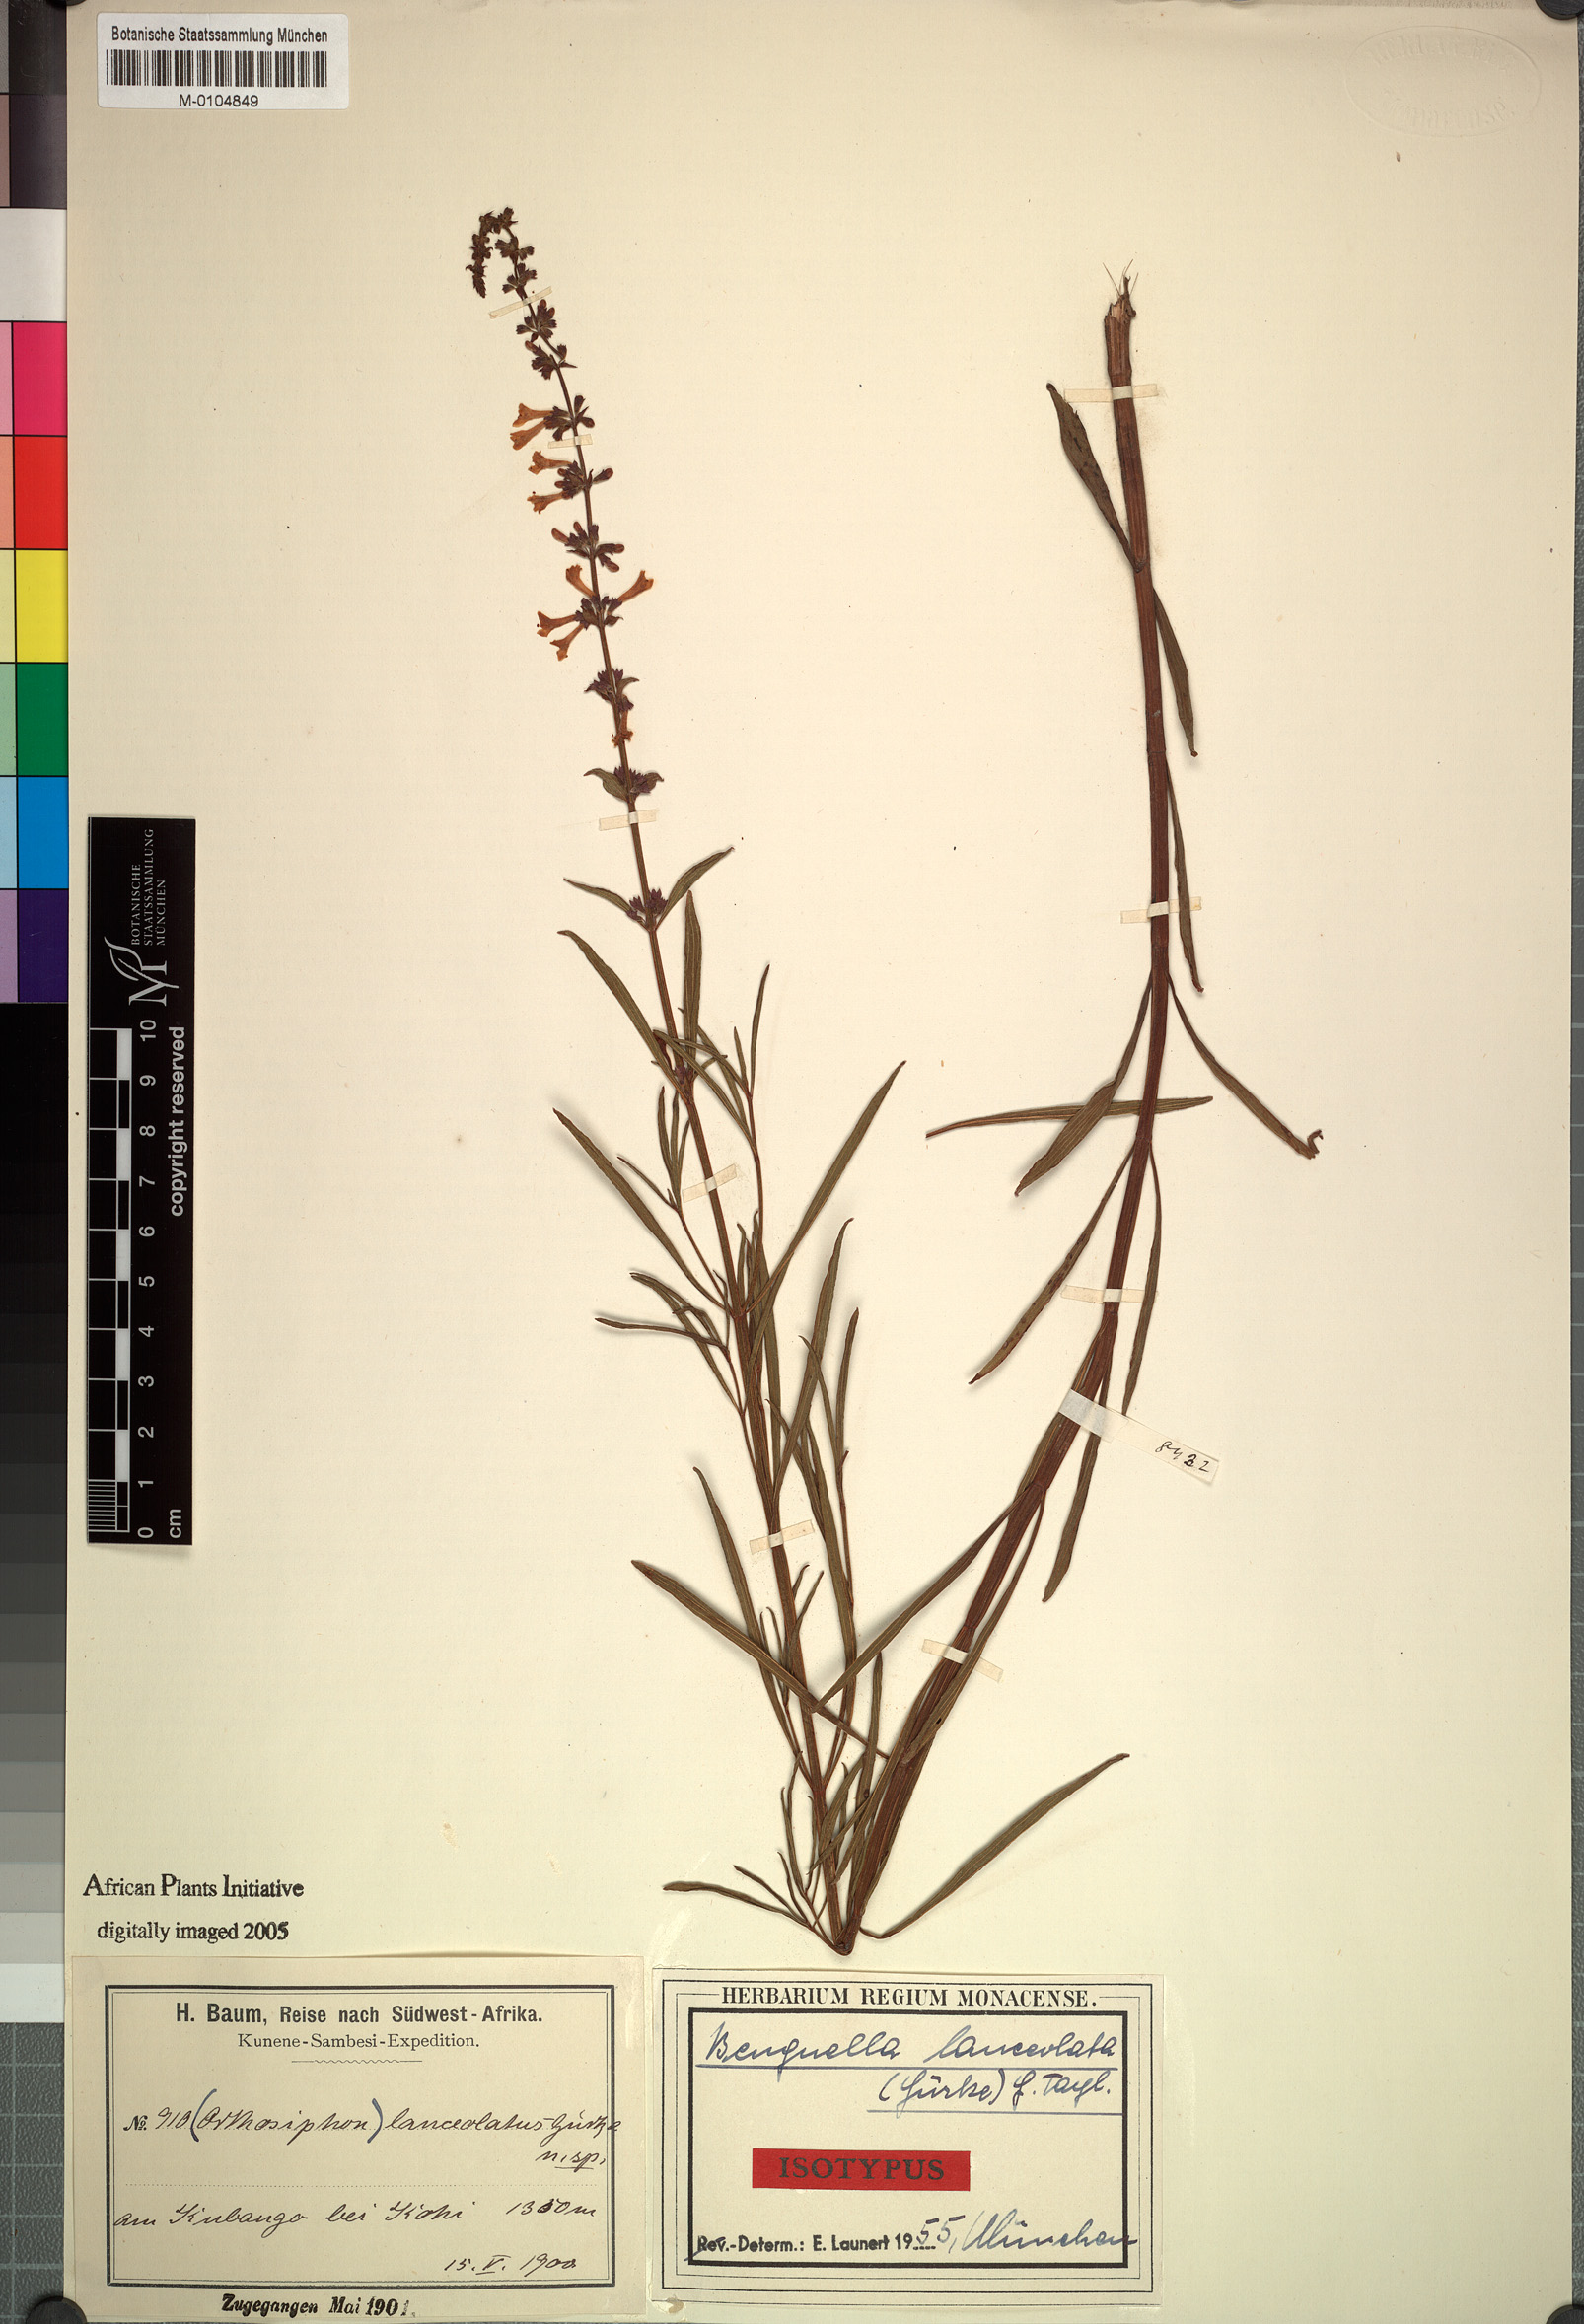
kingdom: Plantae
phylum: Tracheophyta
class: Magnoliopsida
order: Lamiales
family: Lamiaceae
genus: Benguellia
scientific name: Benguellia lanceolata
